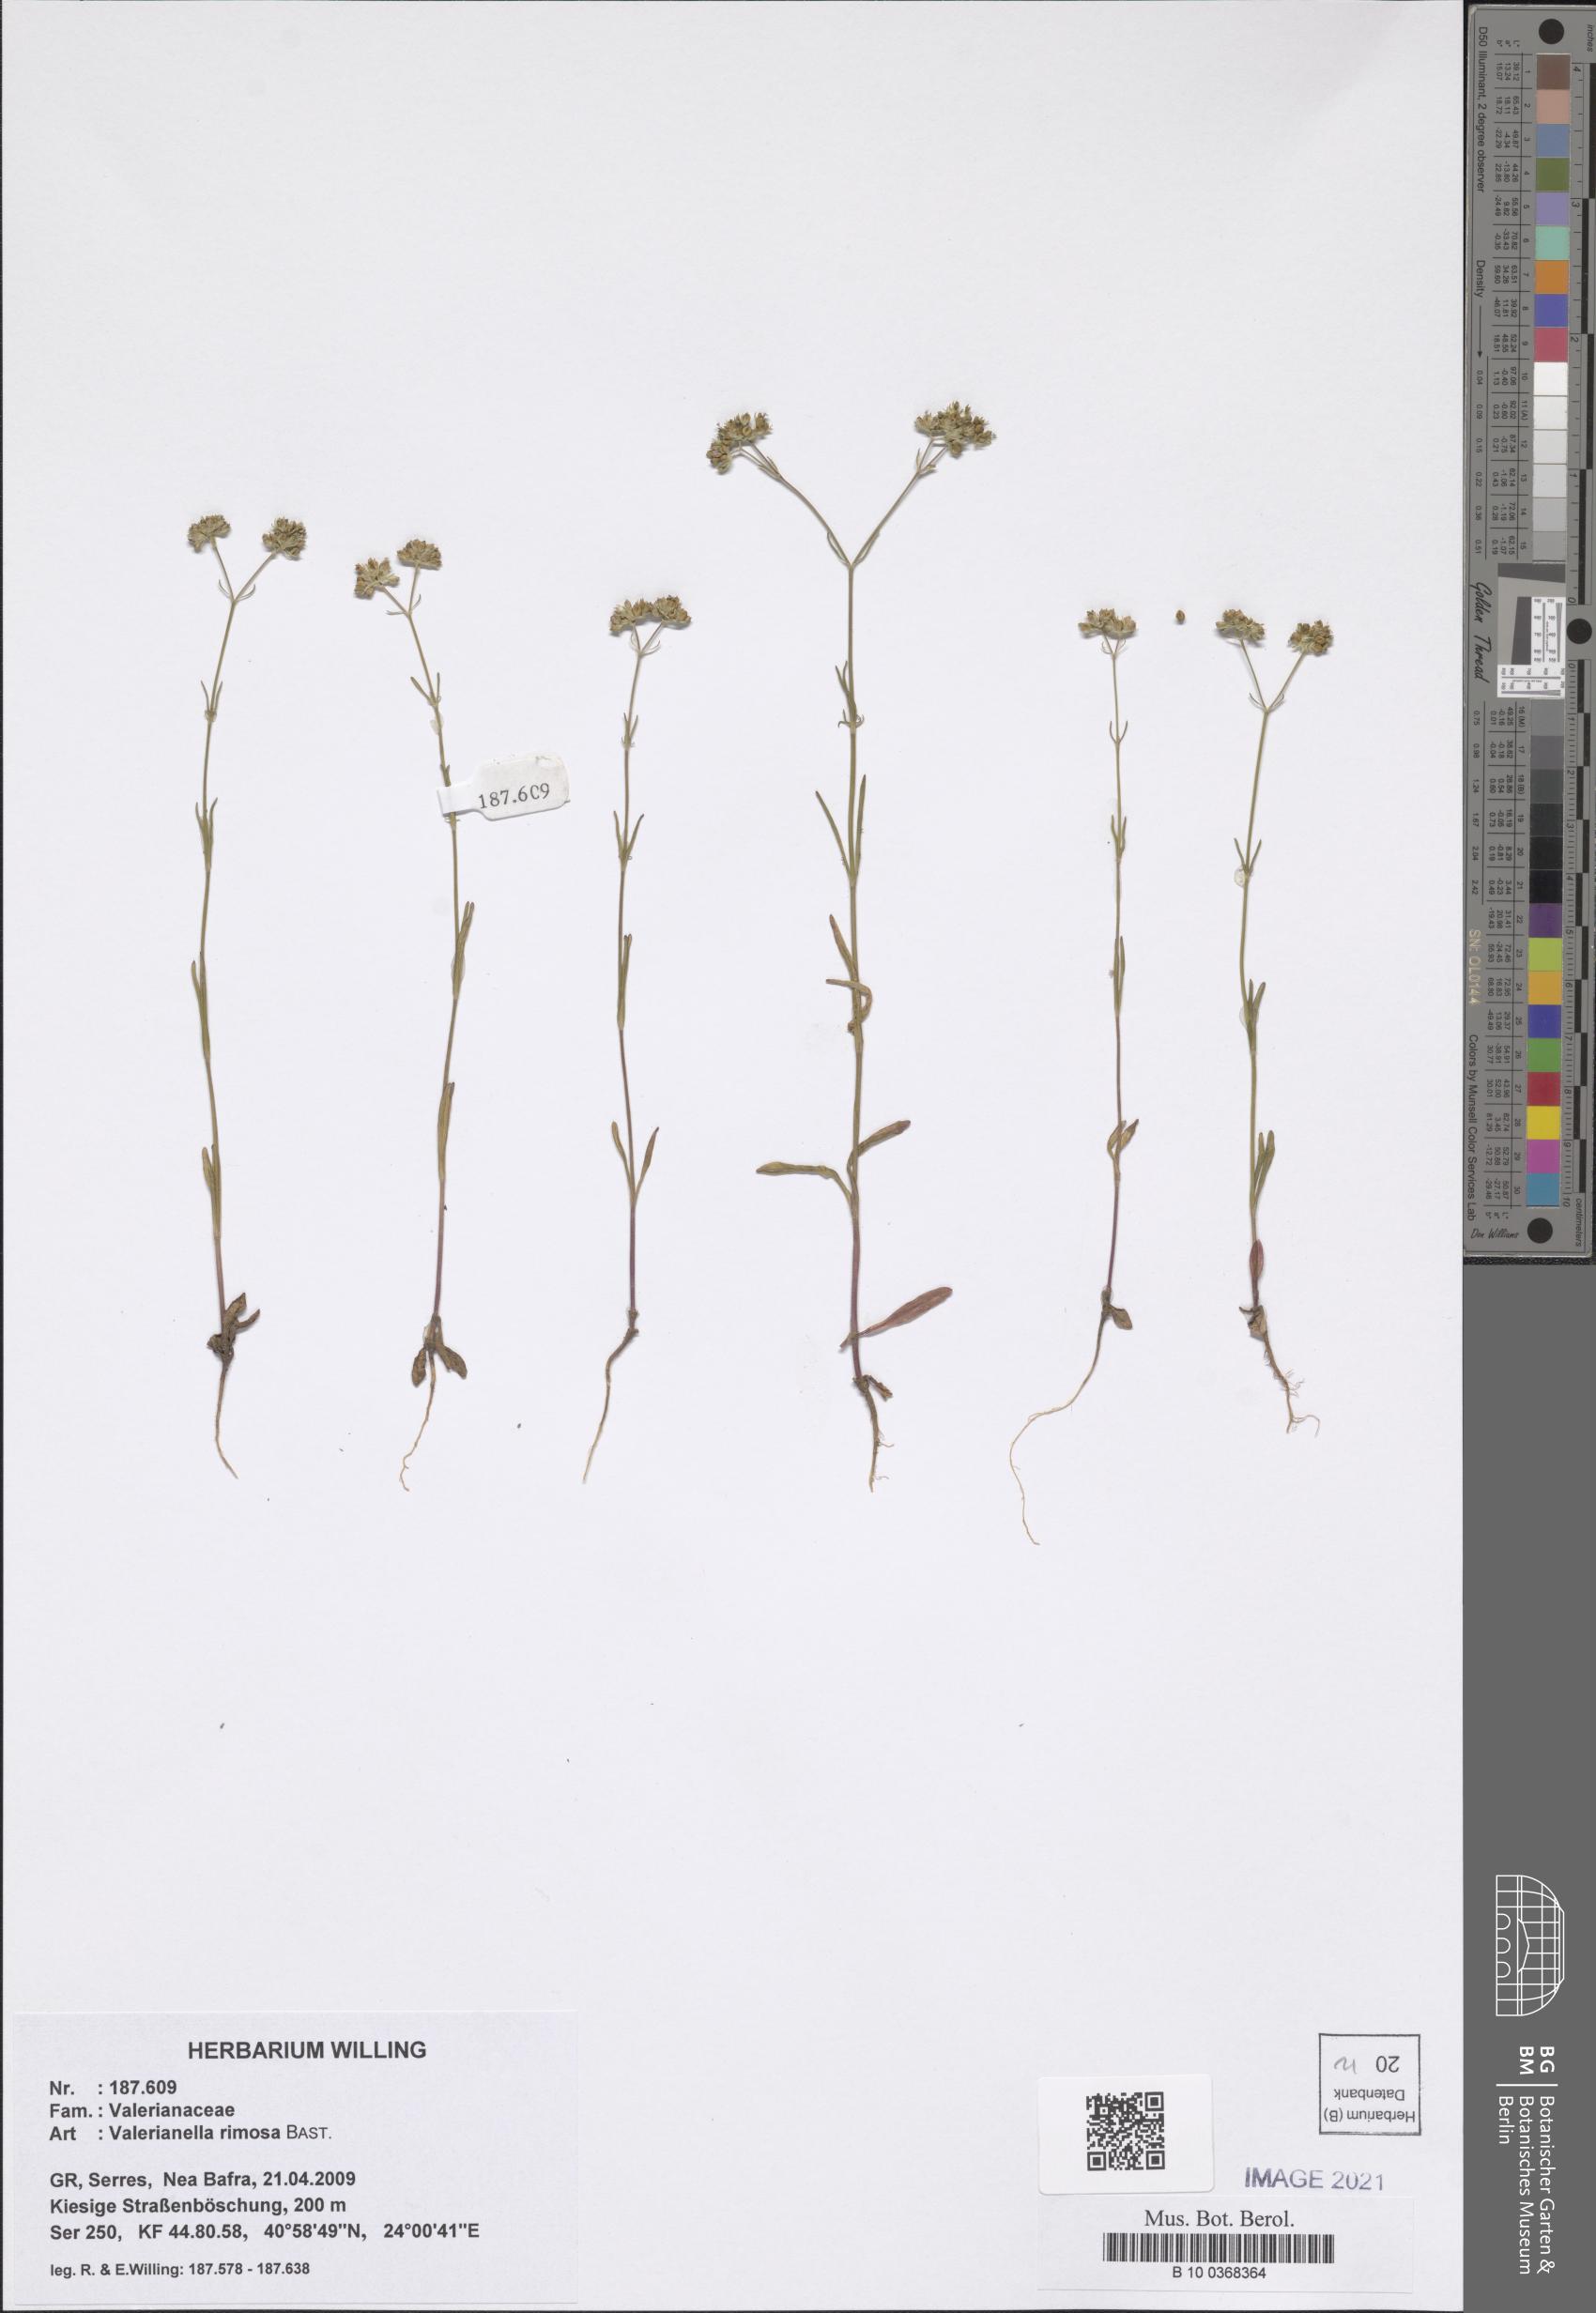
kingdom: Plantae
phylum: Tracheophyta
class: Magnoliopsida
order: Dipsacales
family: Caprifoliaceae
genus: Valerianella
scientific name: Valerianella rimosa
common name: Broad-fruited cornsalad
